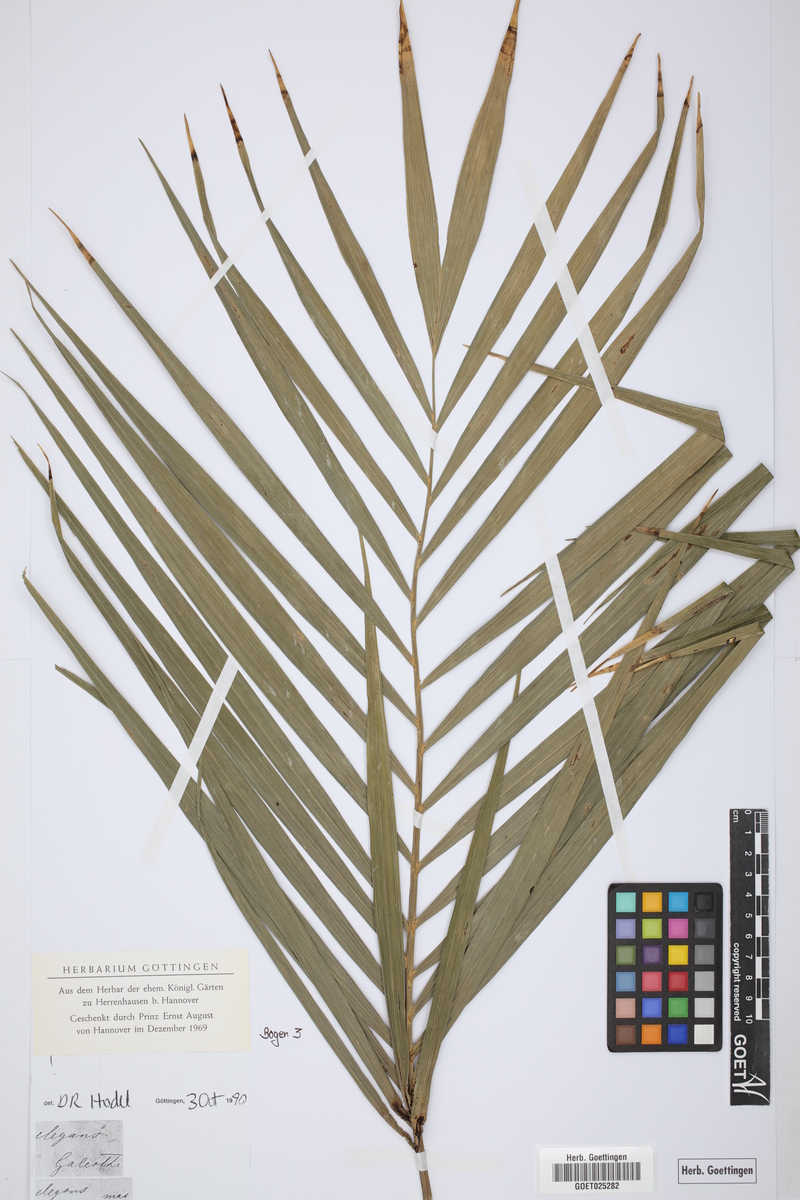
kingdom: Plantae
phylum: Tracheophyta
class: Liliopsida
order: Arecales
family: Arecaceae
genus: Chamaedorea
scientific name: Chamaedorea elegans
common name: Good-luck palm
